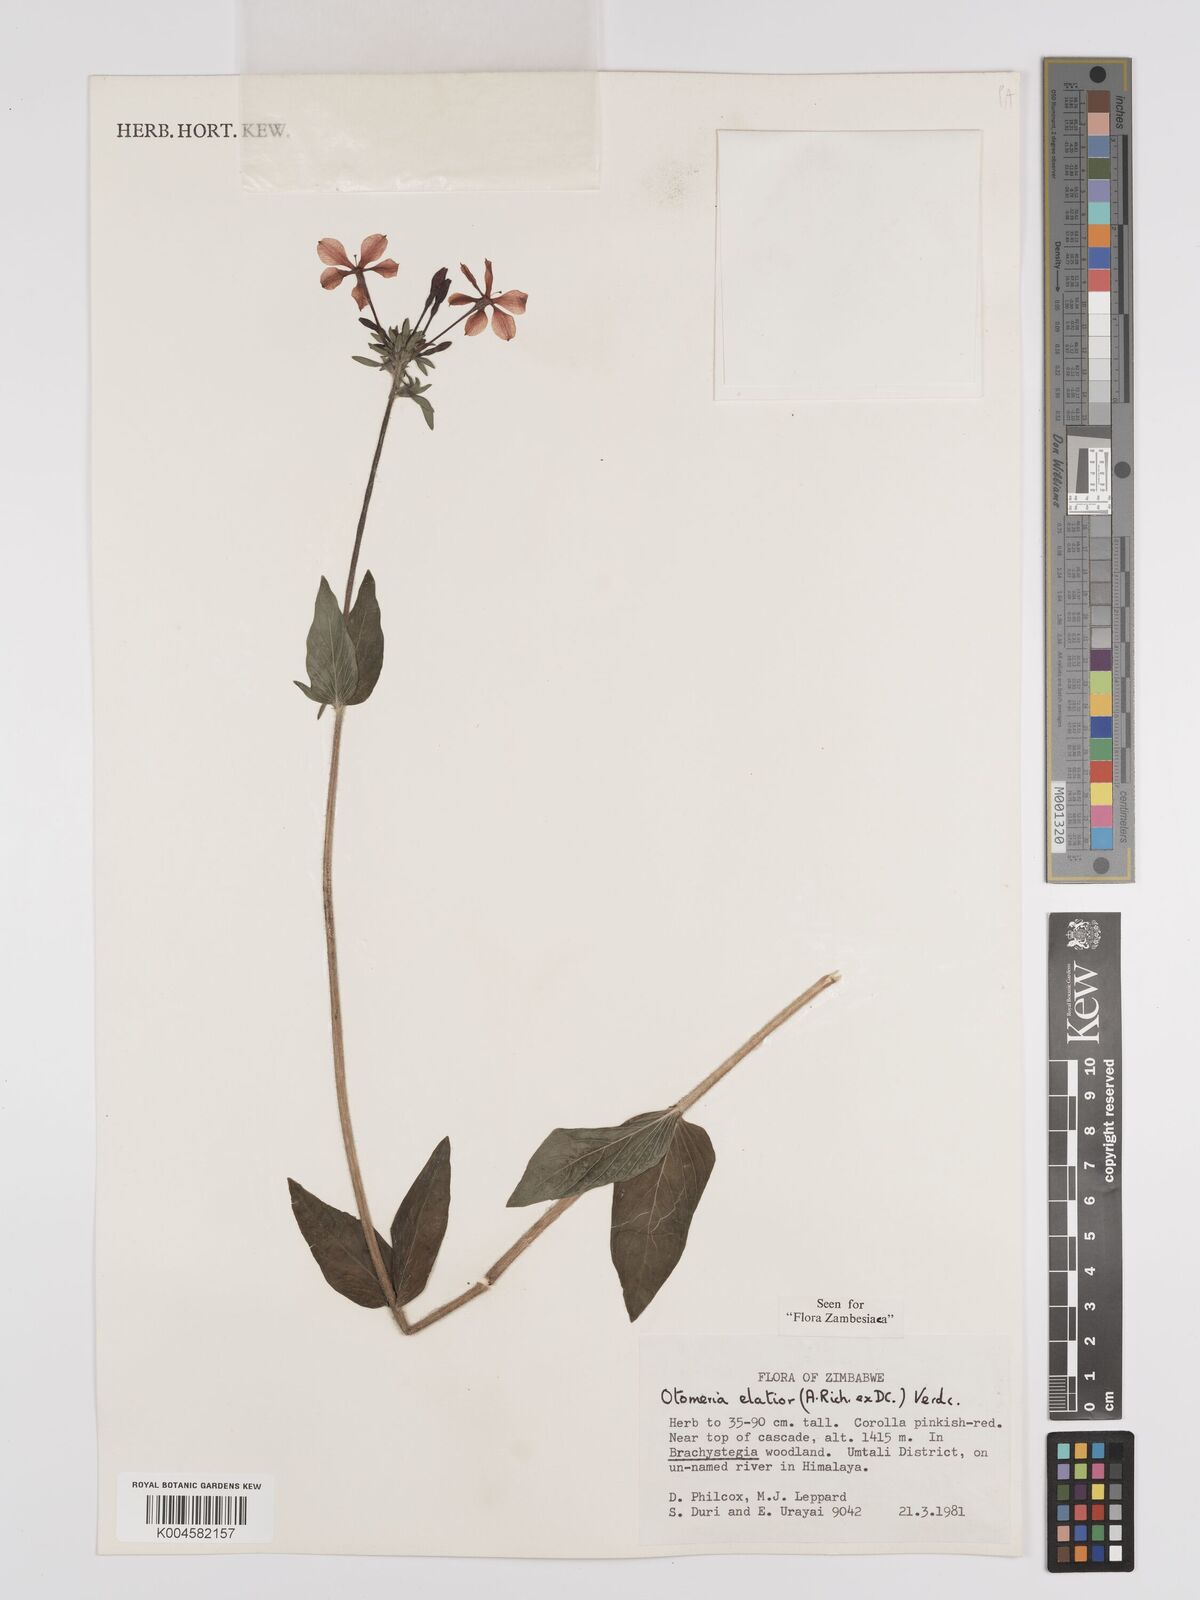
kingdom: Plantae
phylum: Tracheophyta
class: Magnoliopsida
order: Gentianales
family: Rubiaceae
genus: Otomeria
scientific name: Otomeria elatior
